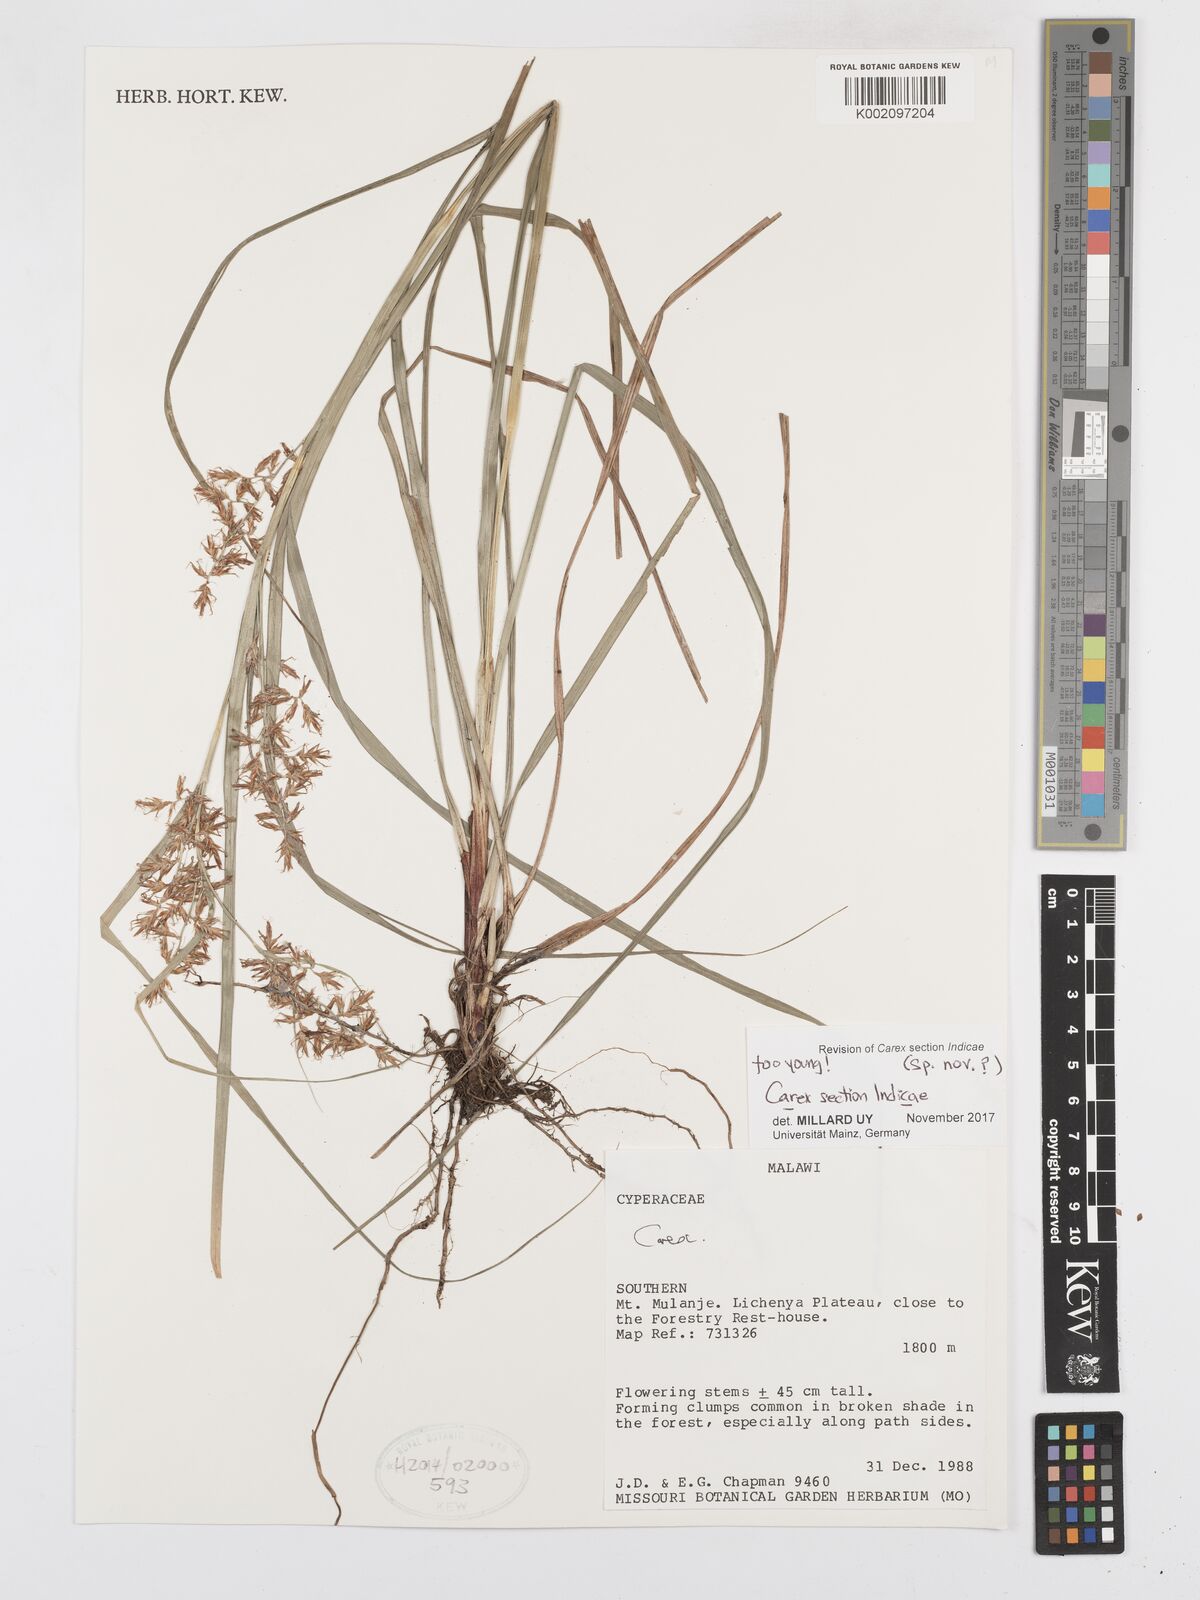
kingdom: Plantae
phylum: Tracheophyta
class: Liliopsida
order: Poales
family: Cyperaceae
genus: Carex
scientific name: Carex
